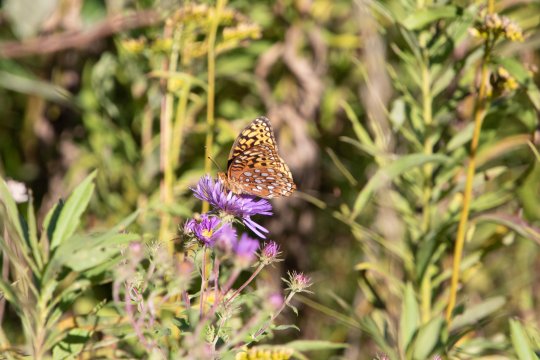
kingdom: Animalia
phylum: Arthropoda
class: Insecta
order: Lepidoptera
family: Nymphalidae
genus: Speyeria
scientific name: Speyeria aphrodite
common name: Aphrodite Fritillary
